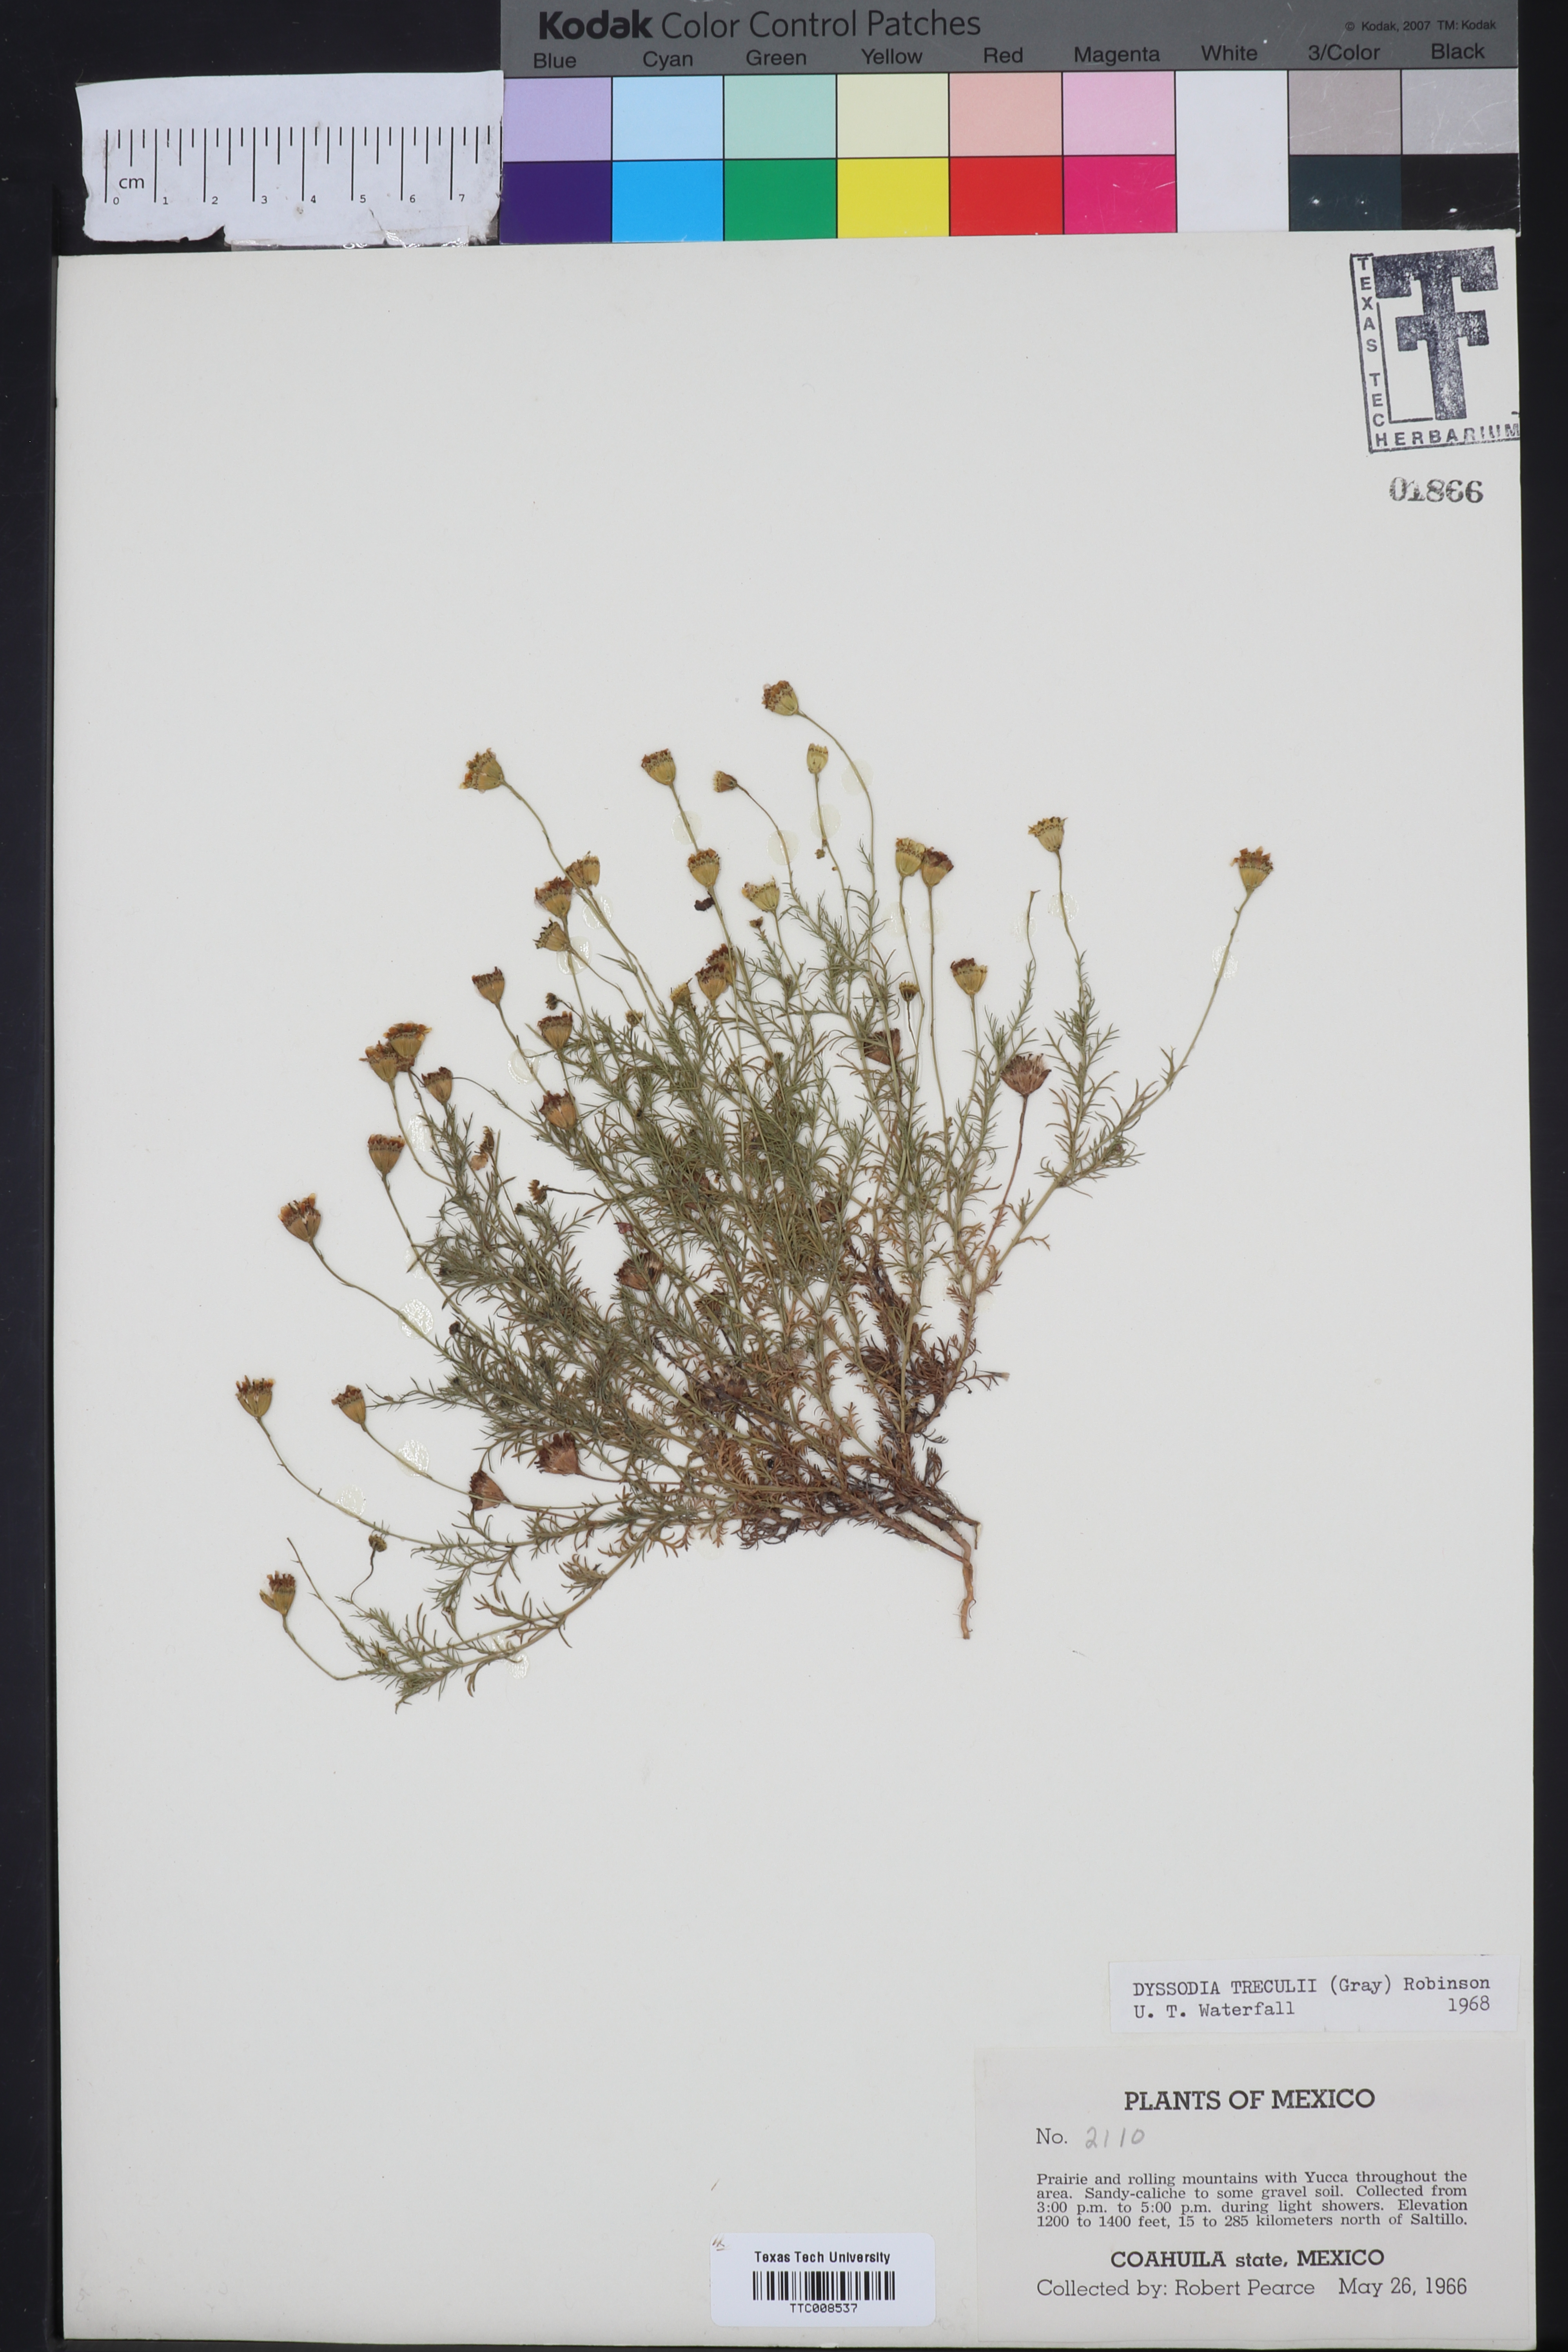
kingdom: Plantae
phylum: Tracheophyta
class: Magnoliopsida
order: Asterales
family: Asteraceae
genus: Thymophylla
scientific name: Thymophylla tenuiloba
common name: Dahlberg's daisy
